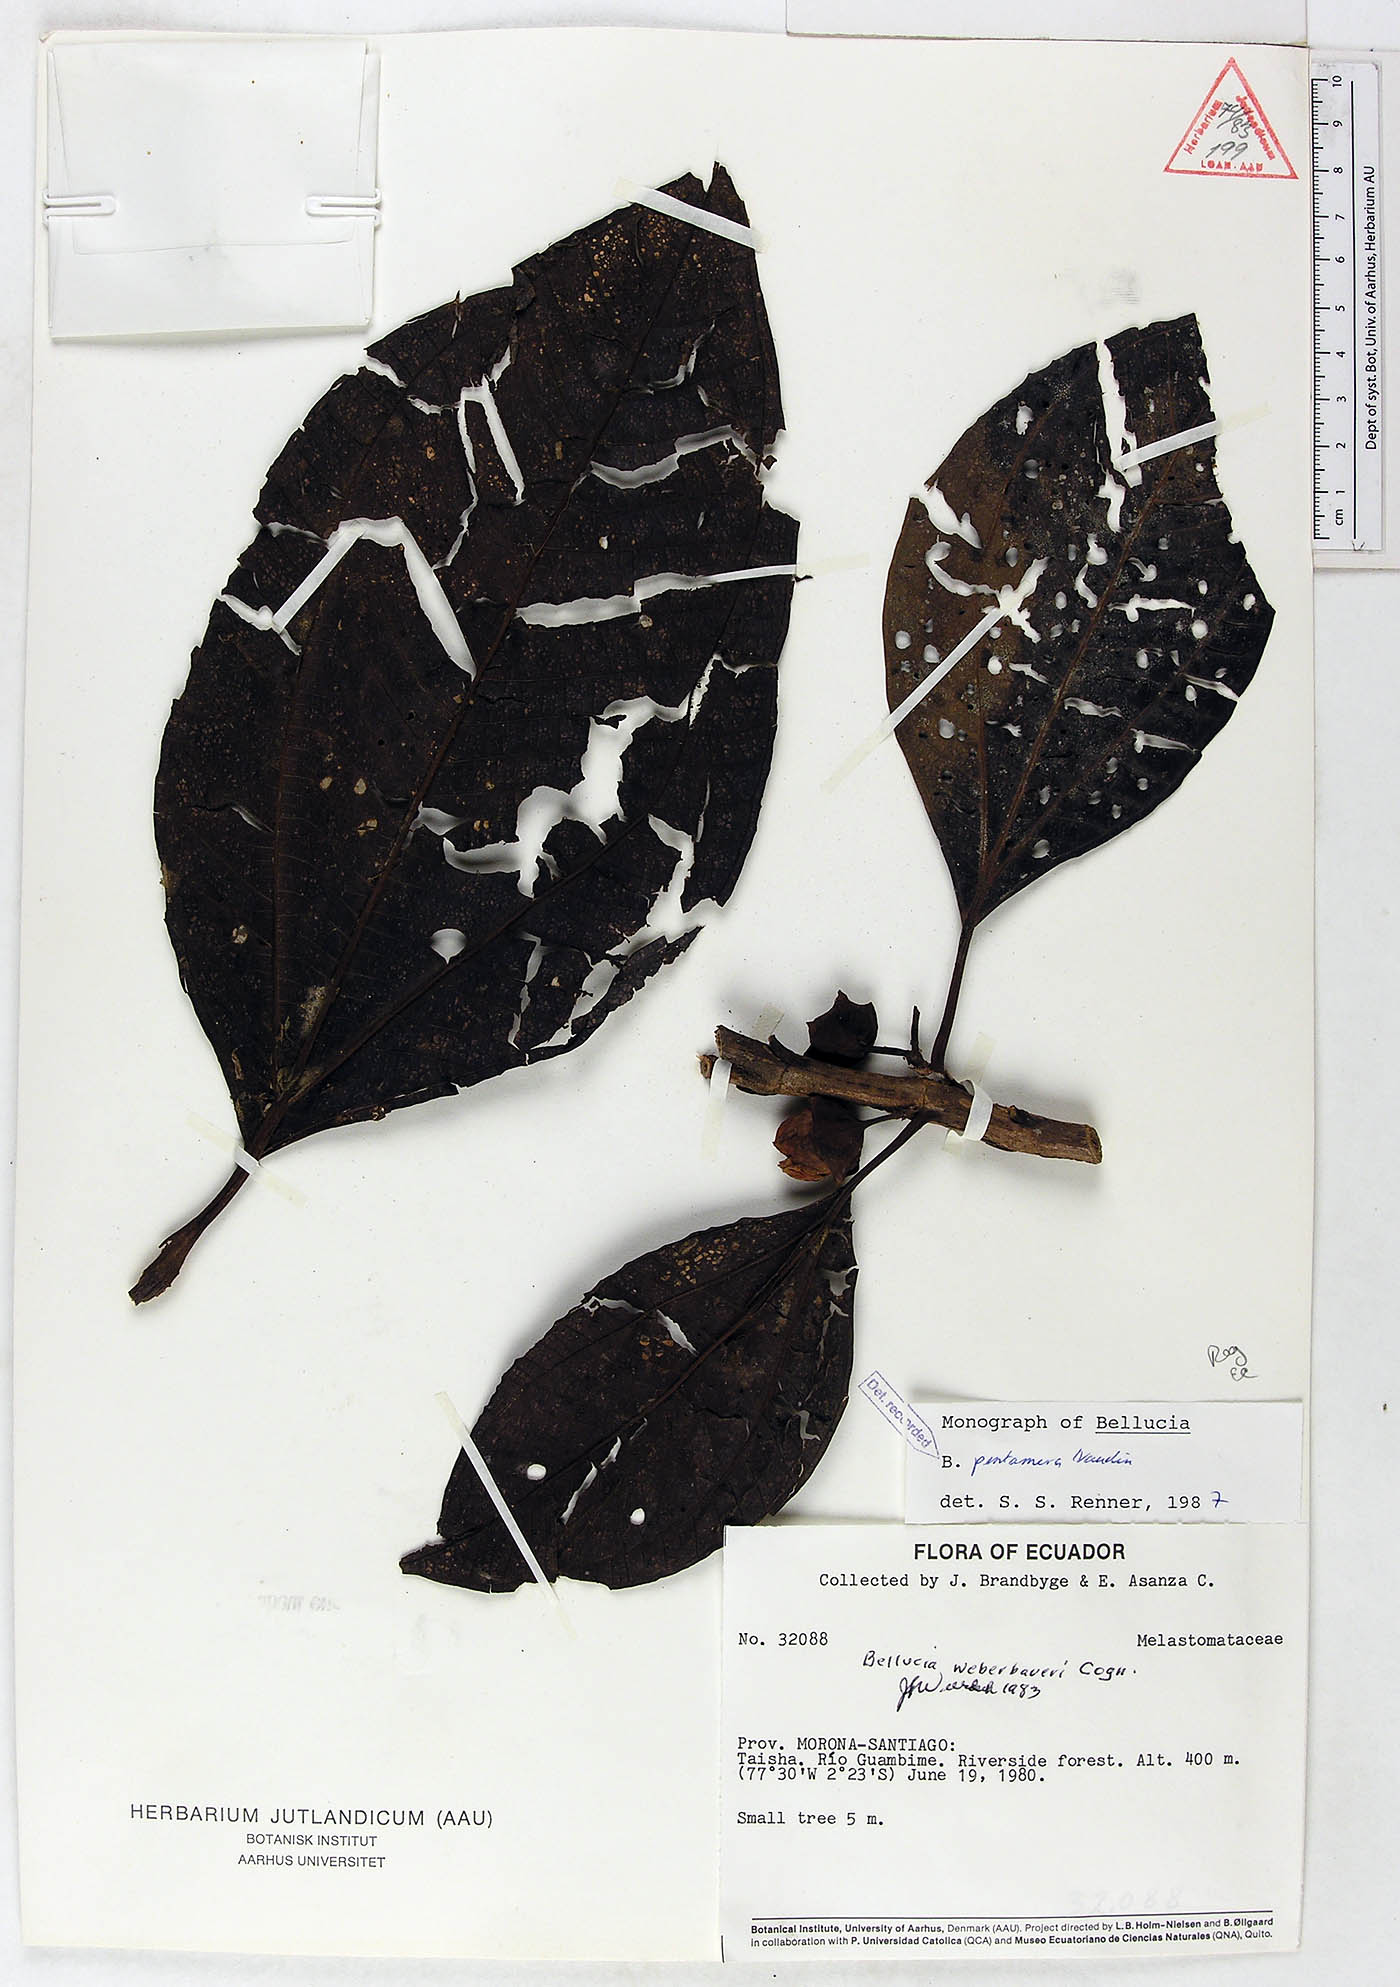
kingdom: Plantae
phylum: Tracheophyta
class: Magnoliopsida
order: Myrtales
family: Melastomataceae
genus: Bellucia
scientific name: Bellucia pentamera
